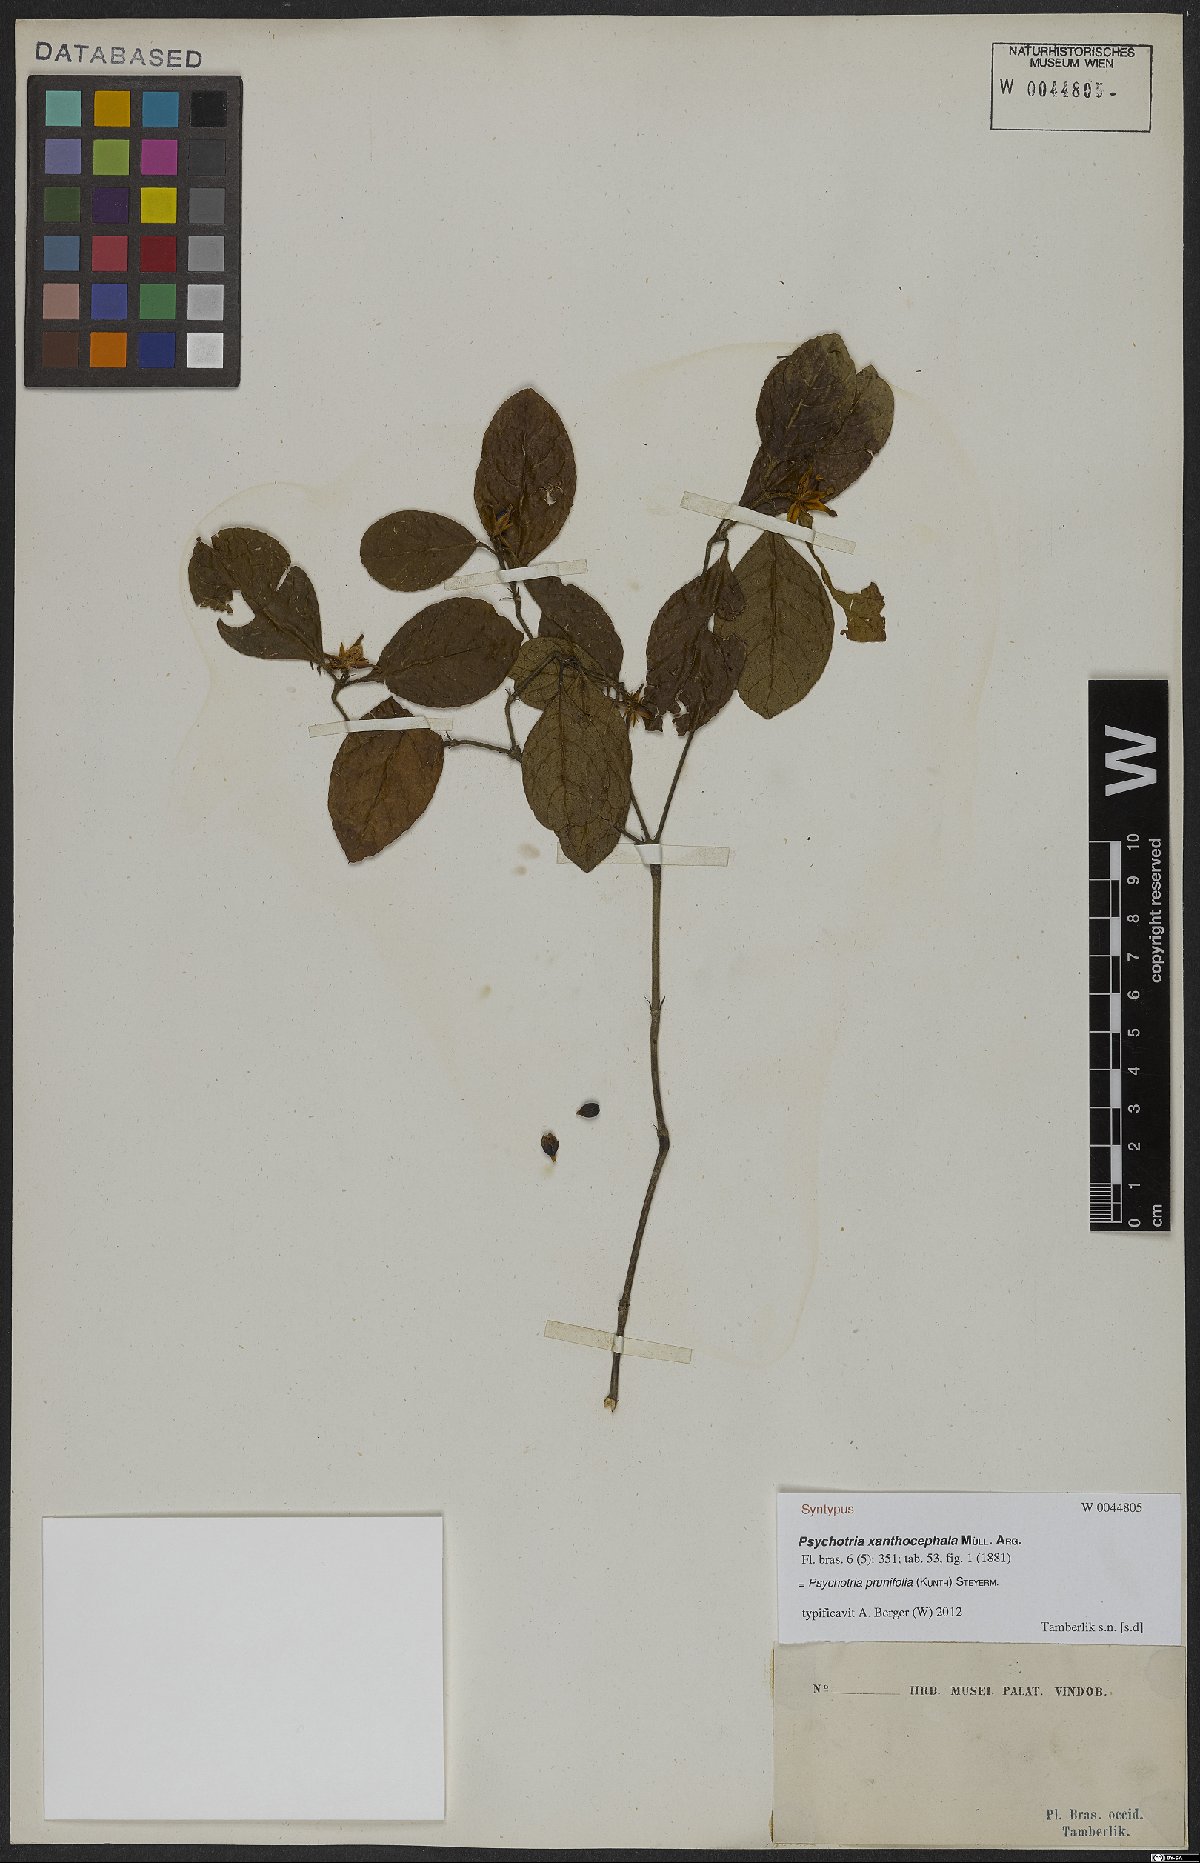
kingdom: Plantae
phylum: Tracheophyta
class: Magnoliopsida
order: Gentianales
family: Rubiaceae
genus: Palicourea
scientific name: Palicourea prunifolia
